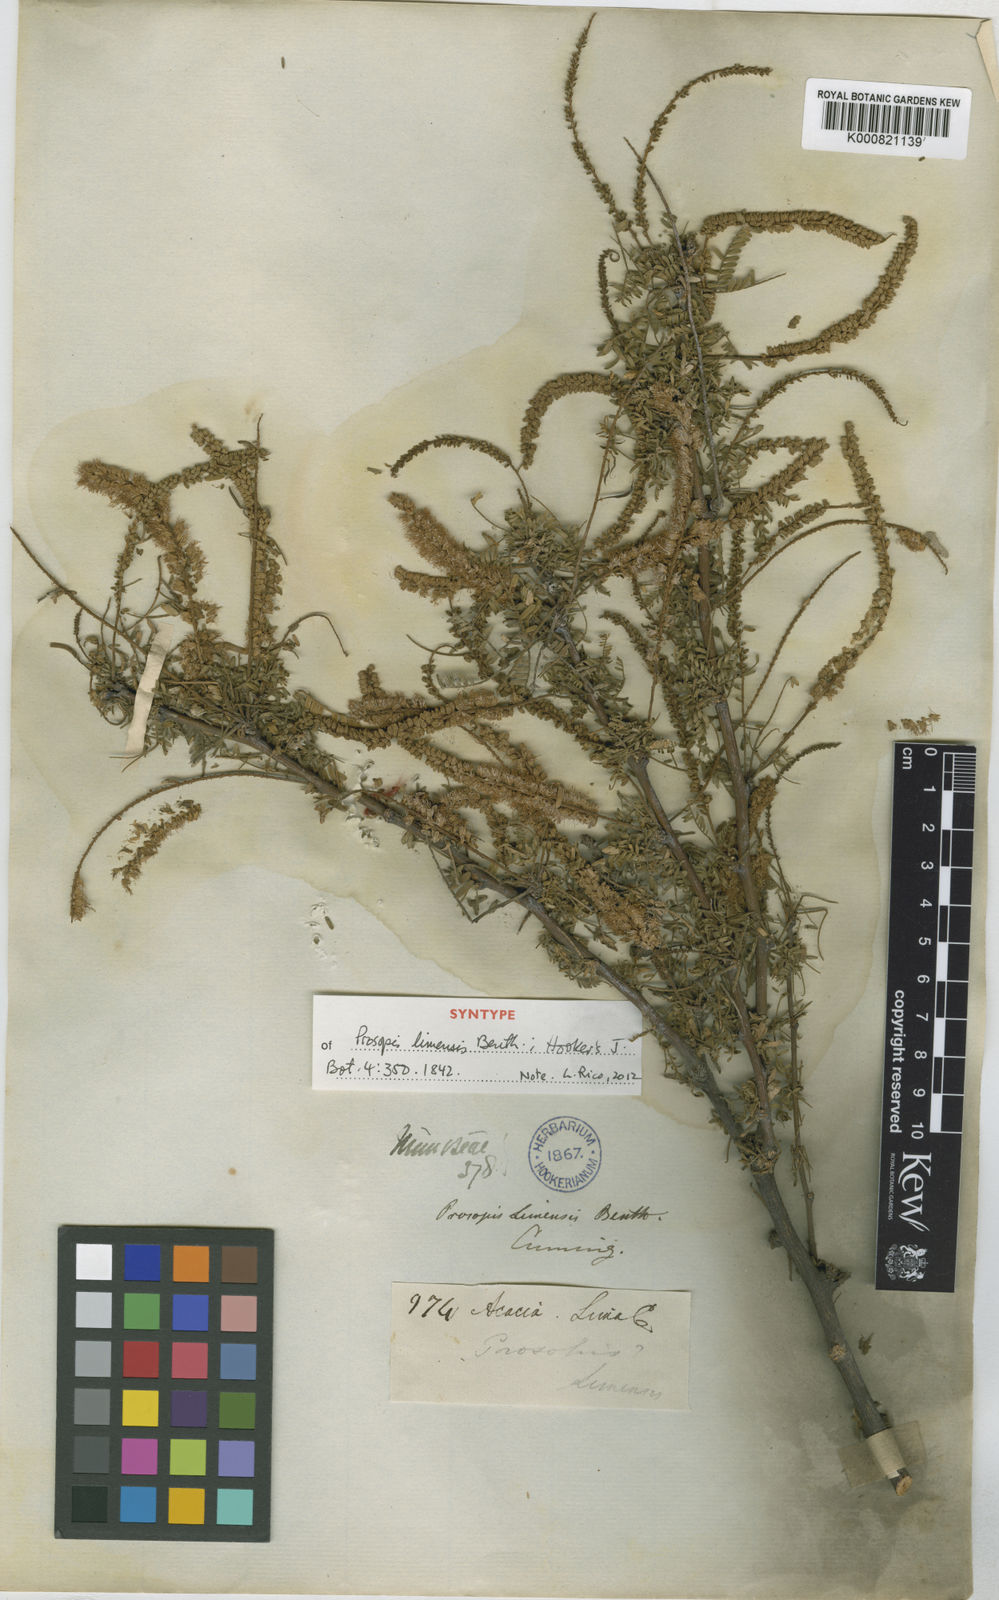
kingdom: Plantae
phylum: Tracheophyta
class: Magnoliopsida
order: Fabales
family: Fabaceae
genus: Prosopis
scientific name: Prosopis limensis
